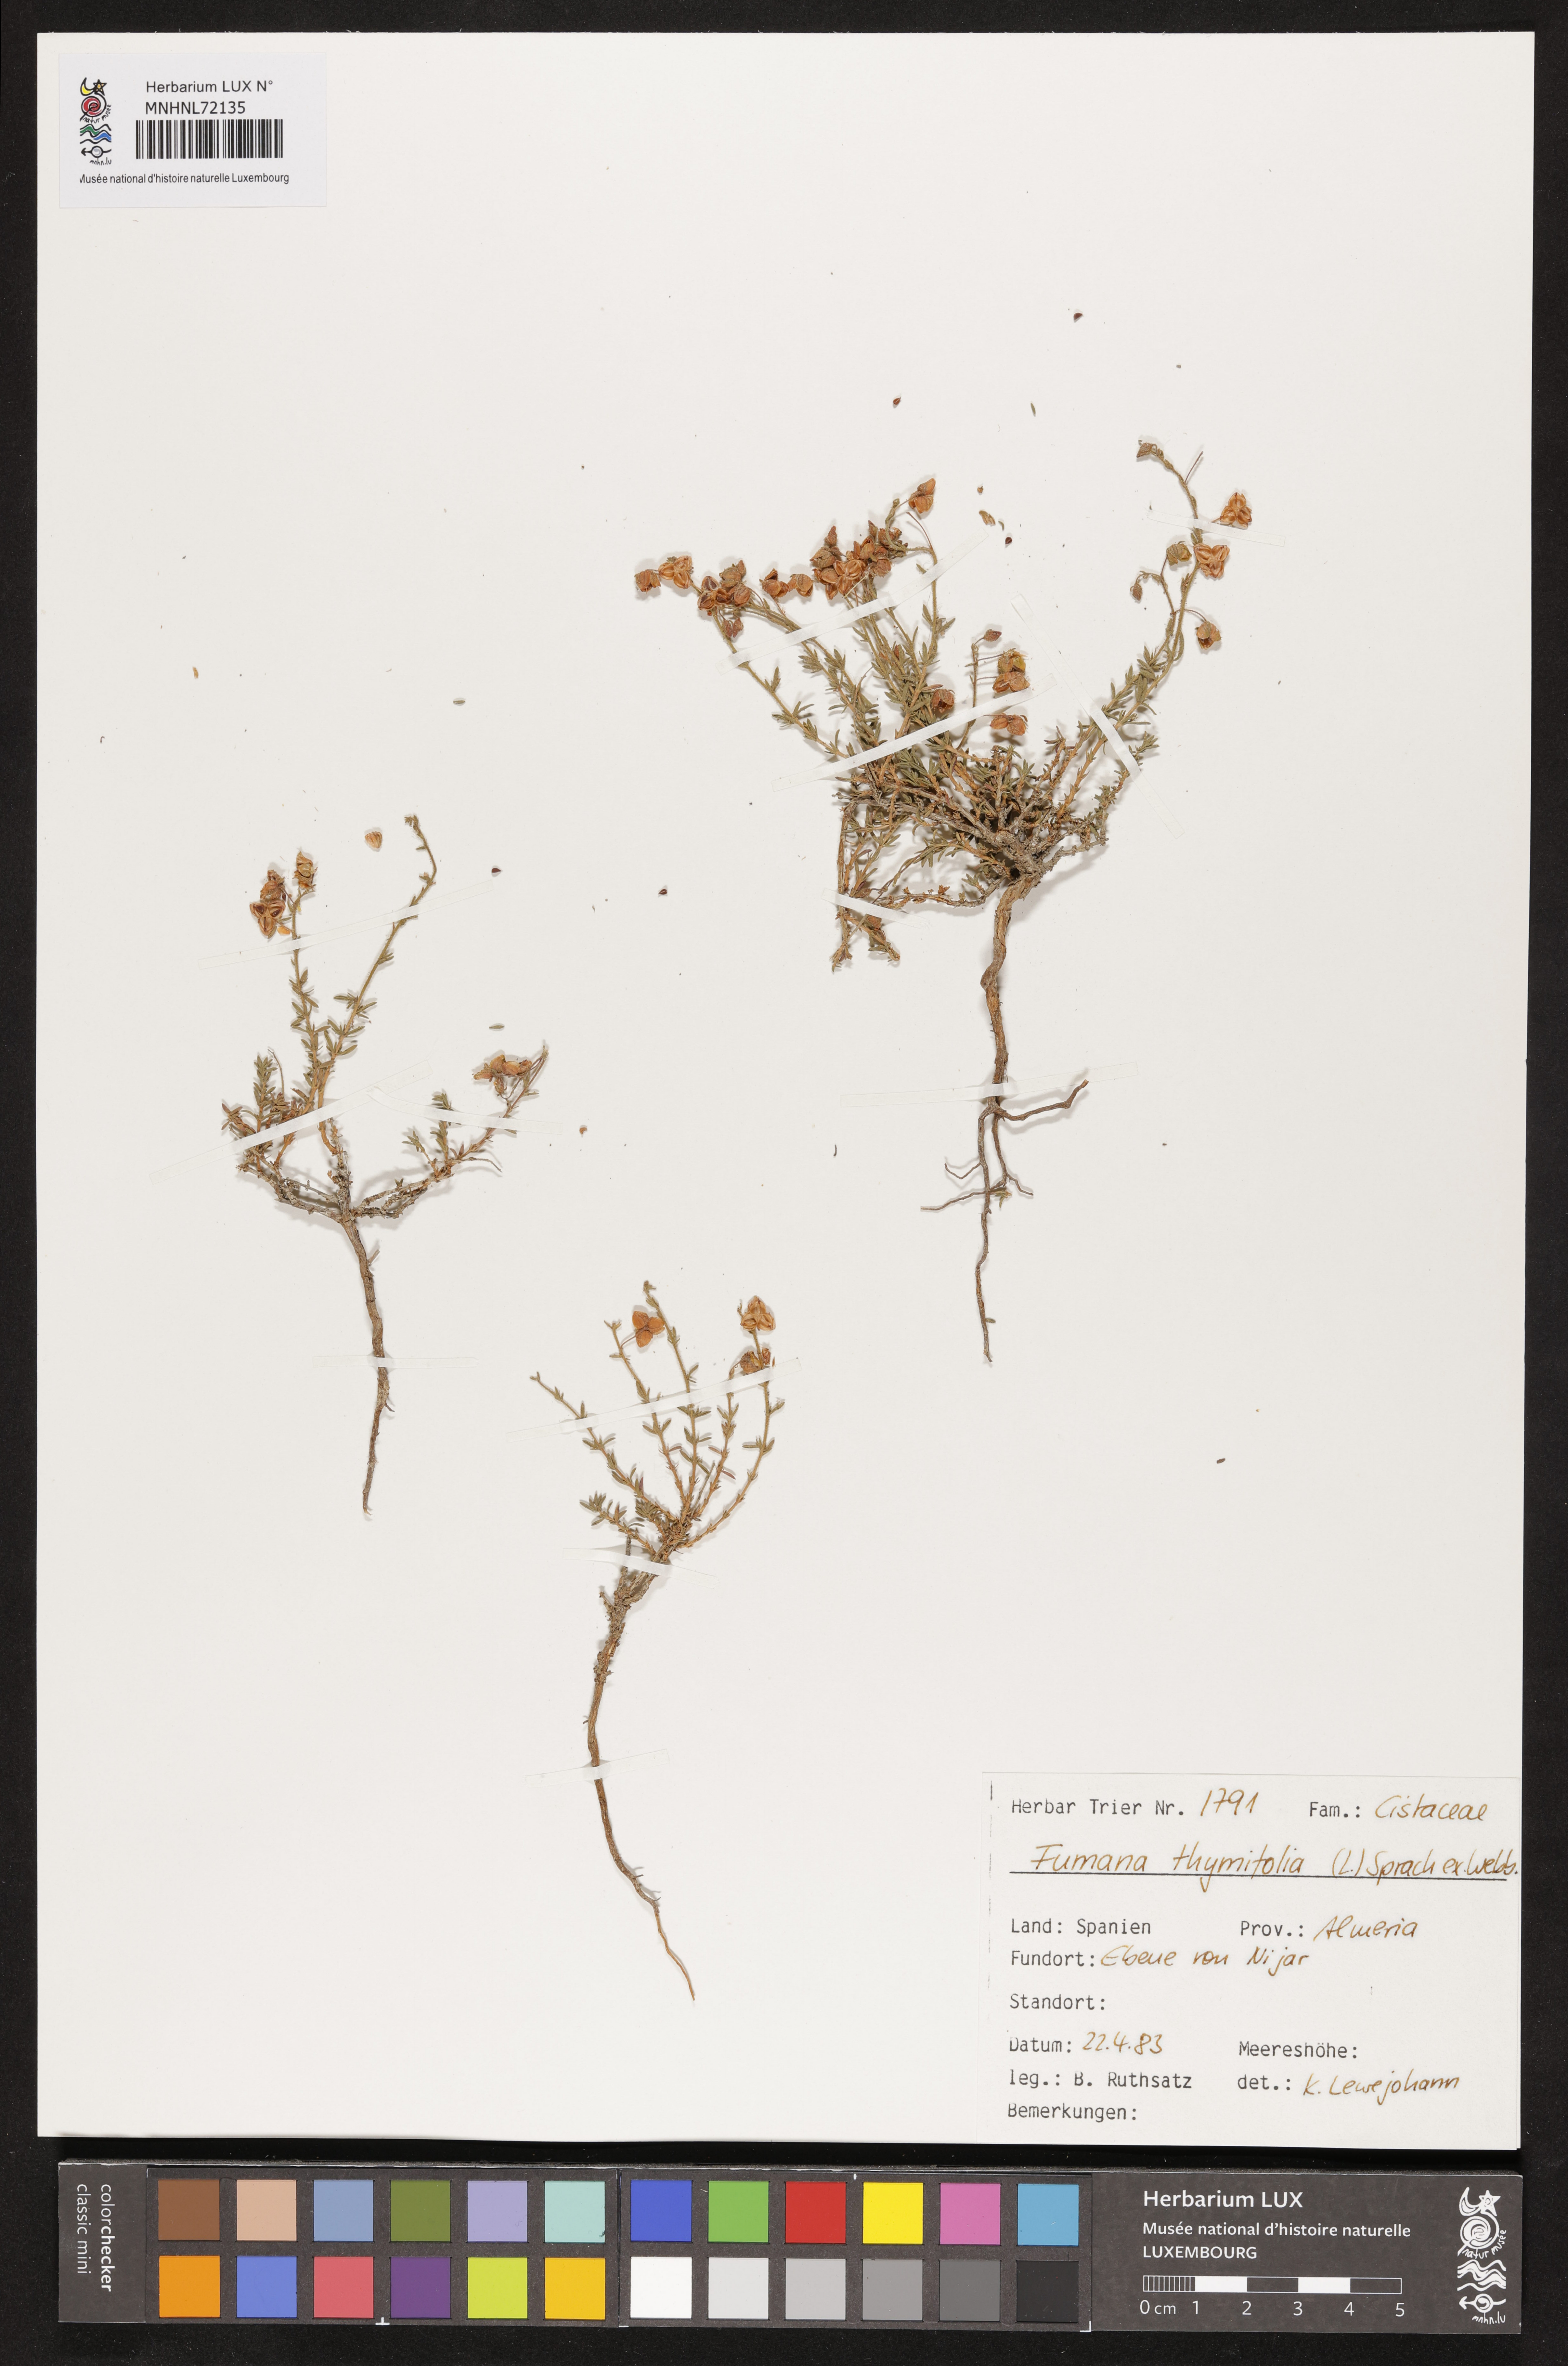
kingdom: Plantae
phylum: Tracheophyta
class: Magnoliopsida
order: Malvales
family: Cistaceae
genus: Fumana
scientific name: Fumana thymifolia
